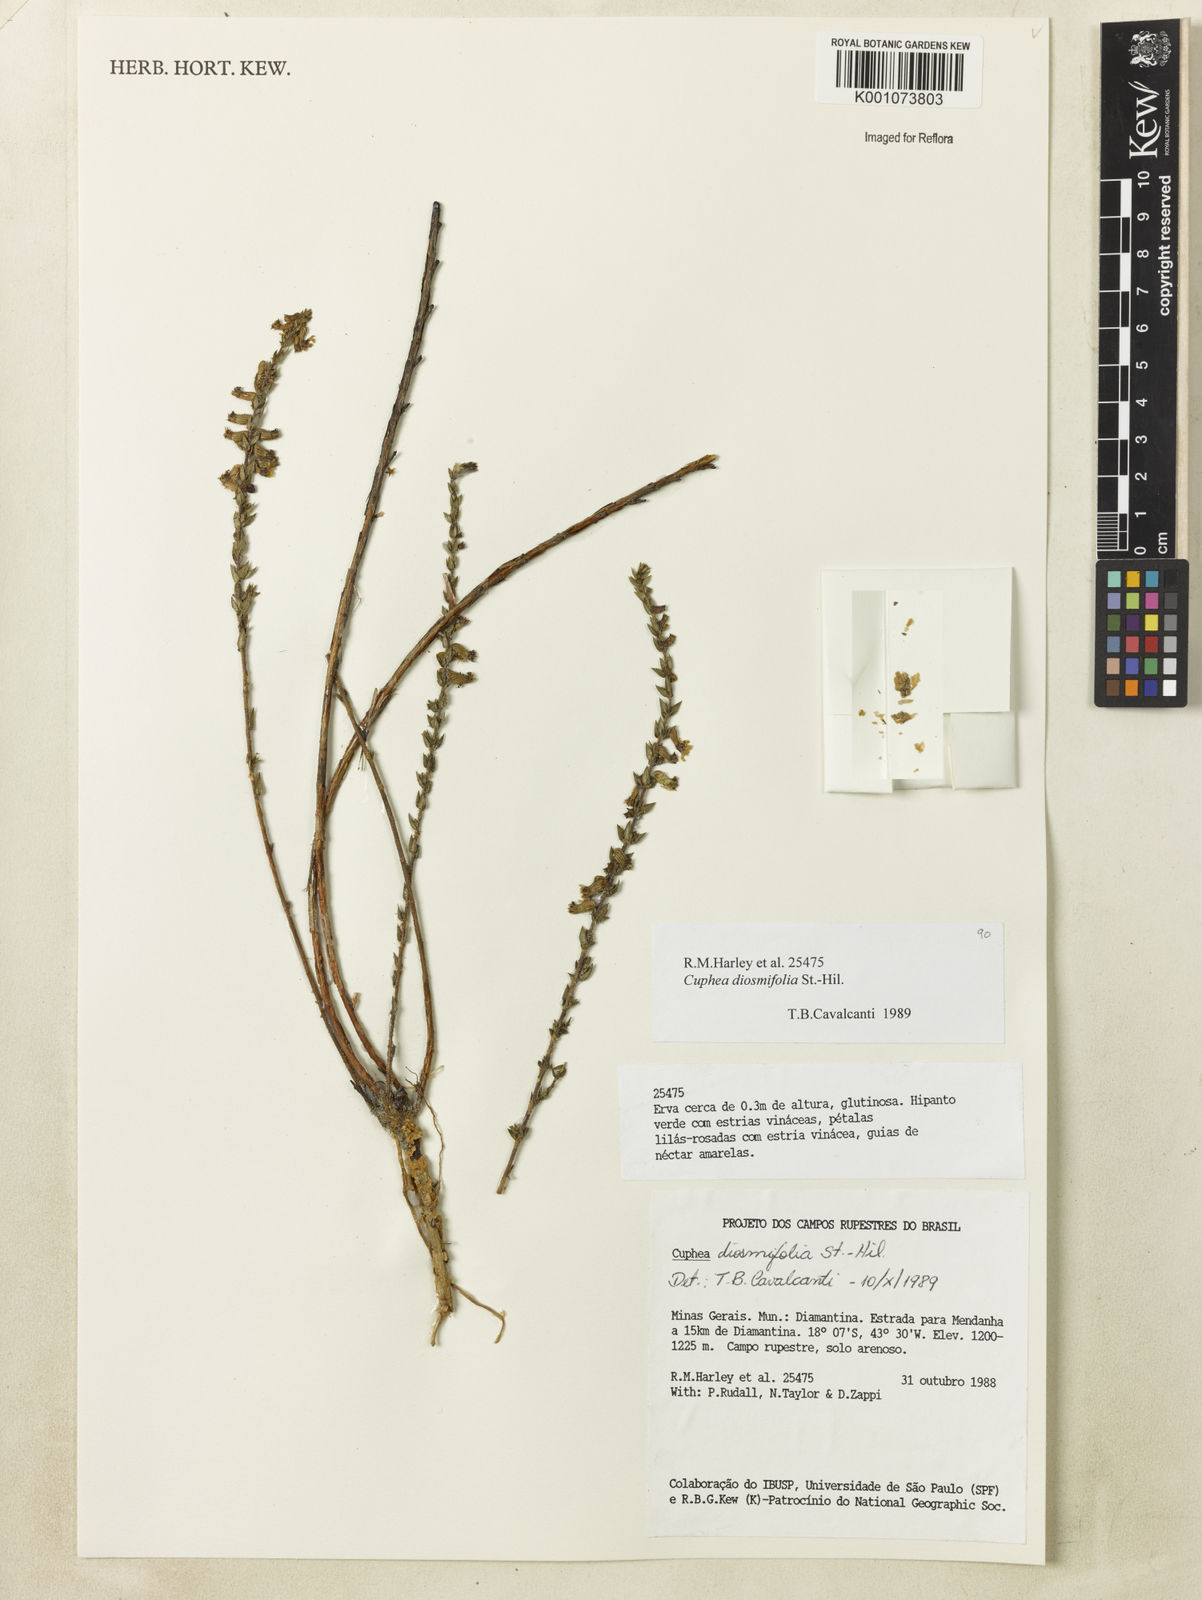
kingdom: Plantae
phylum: Tracheophyta
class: Magnoliopsida
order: Myrtales
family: Lythraceae
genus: Cuphea
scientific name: Cuphea diosmifolia
